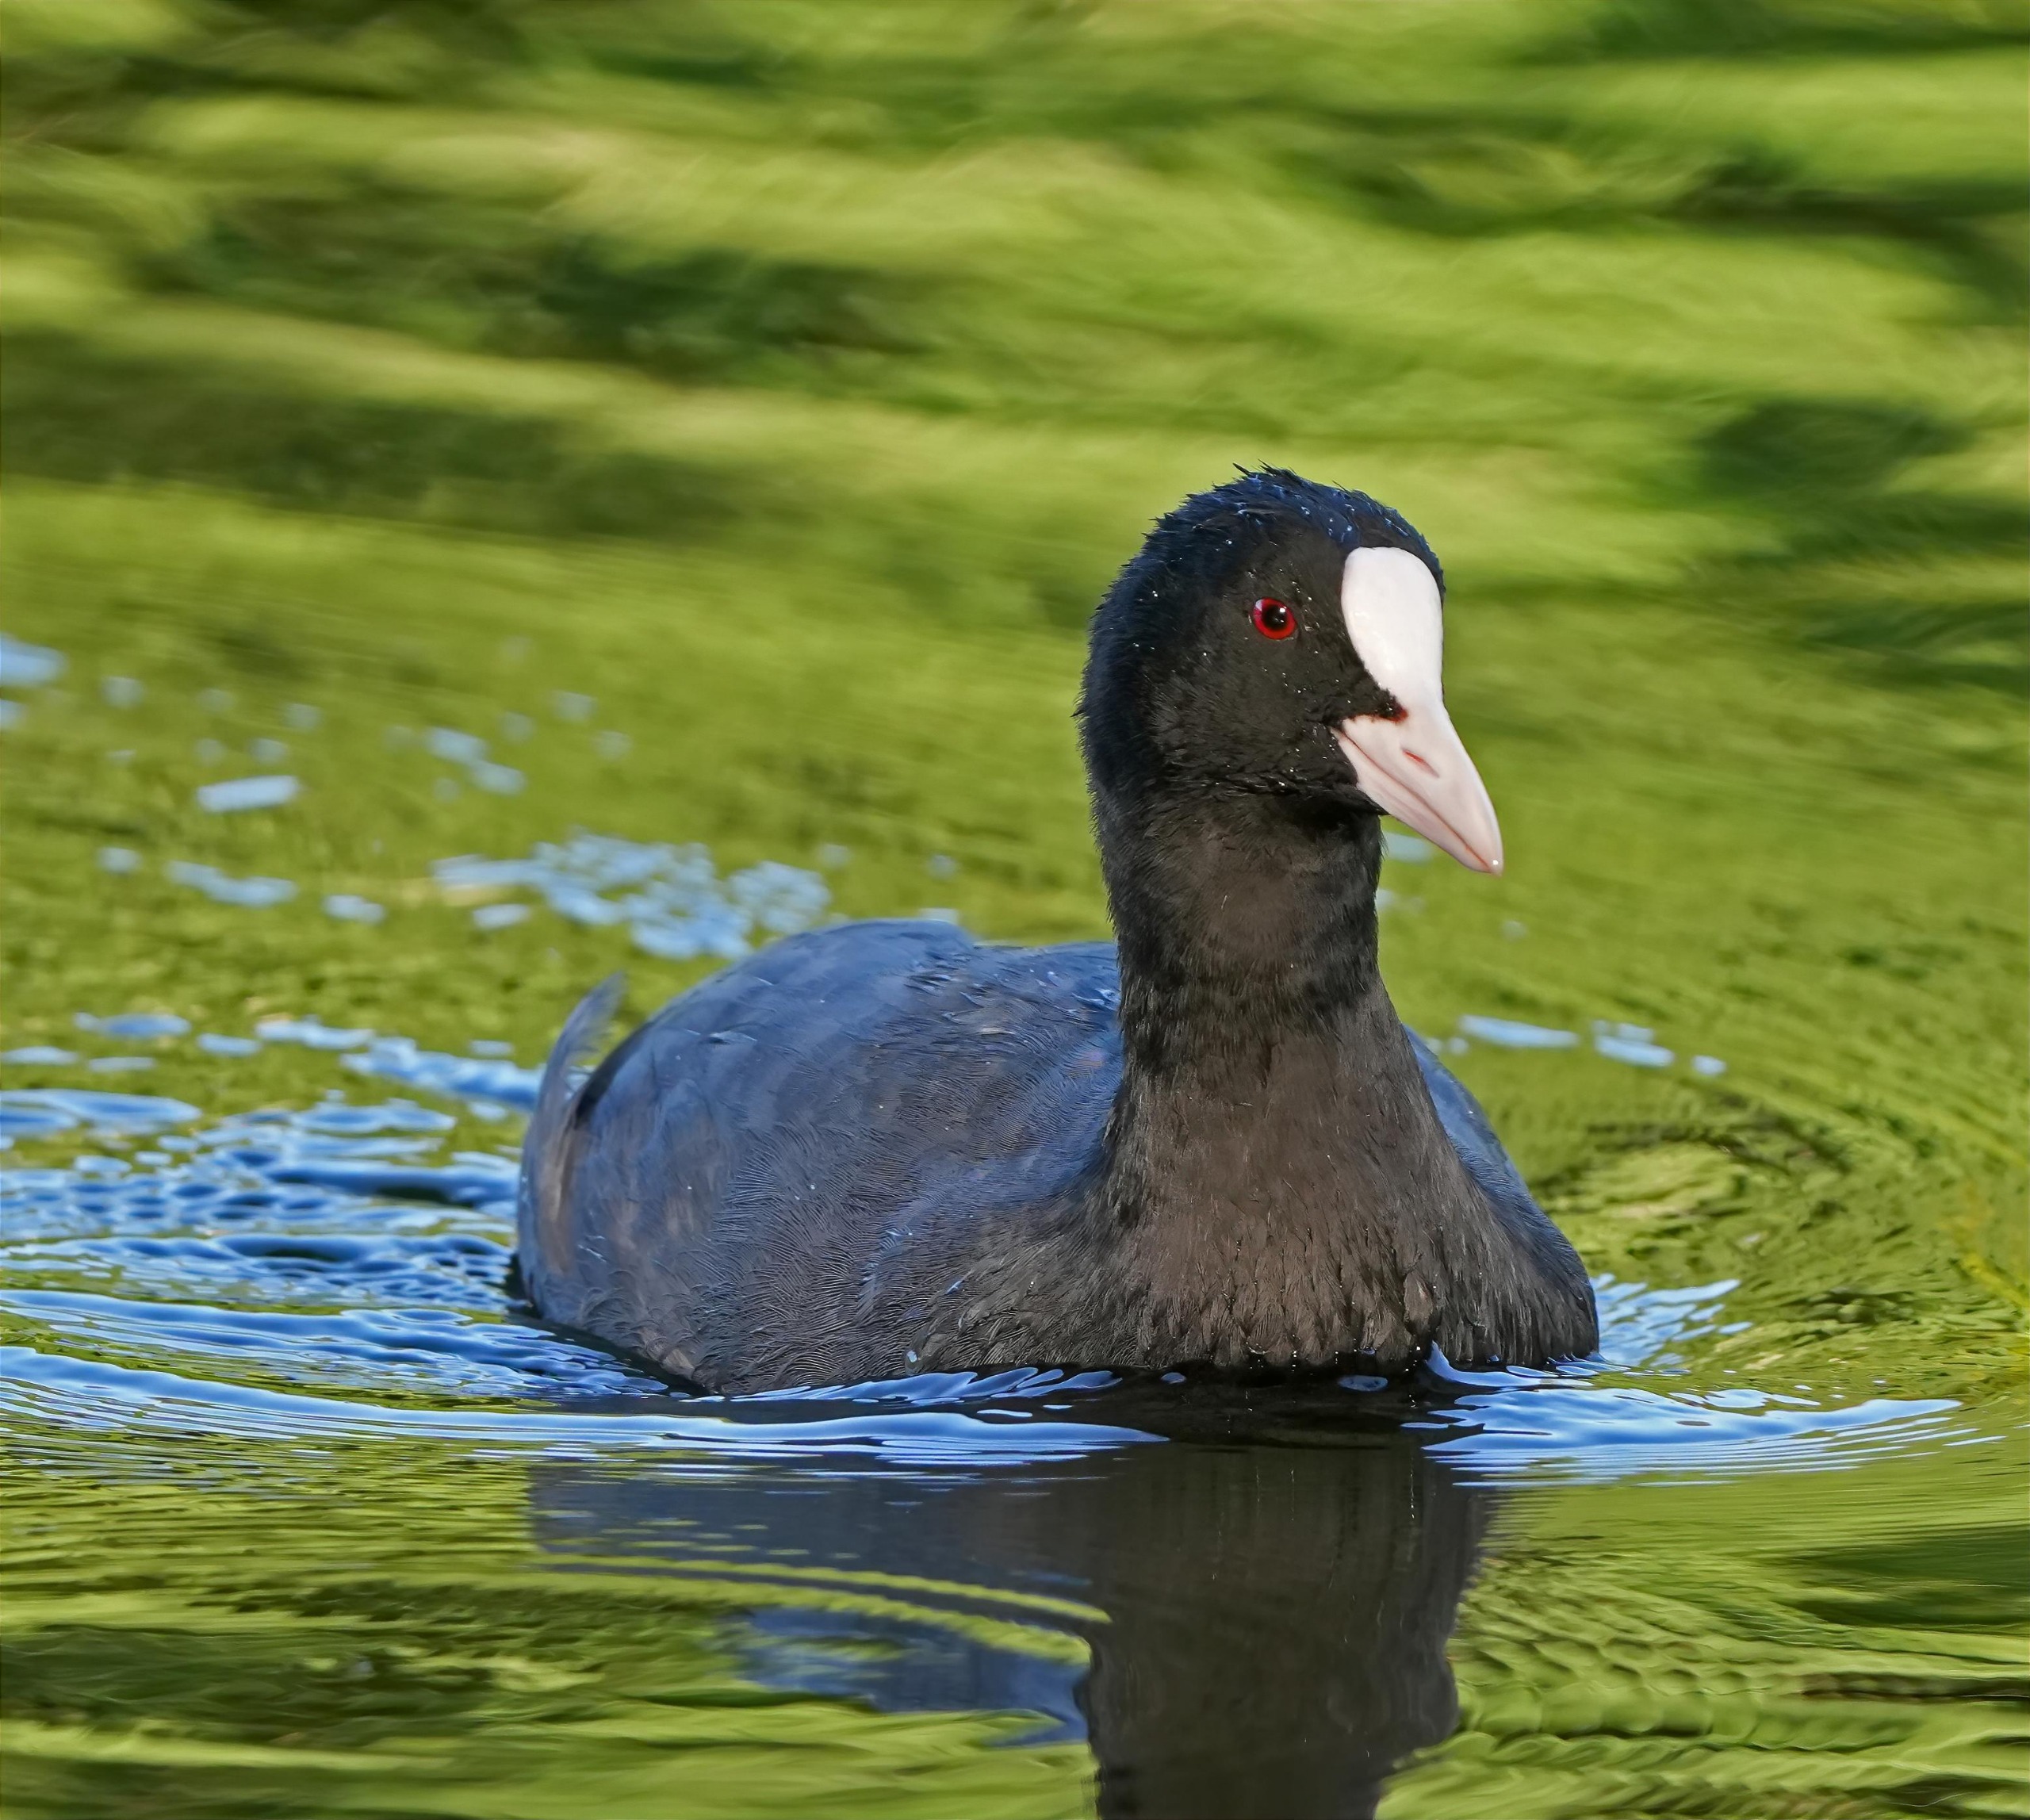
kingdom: Animalia
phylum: Chordata
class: Aves
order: Gruiformes
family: Rallidae
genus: Fulica
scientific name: Fulica atra
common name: Blishøne
